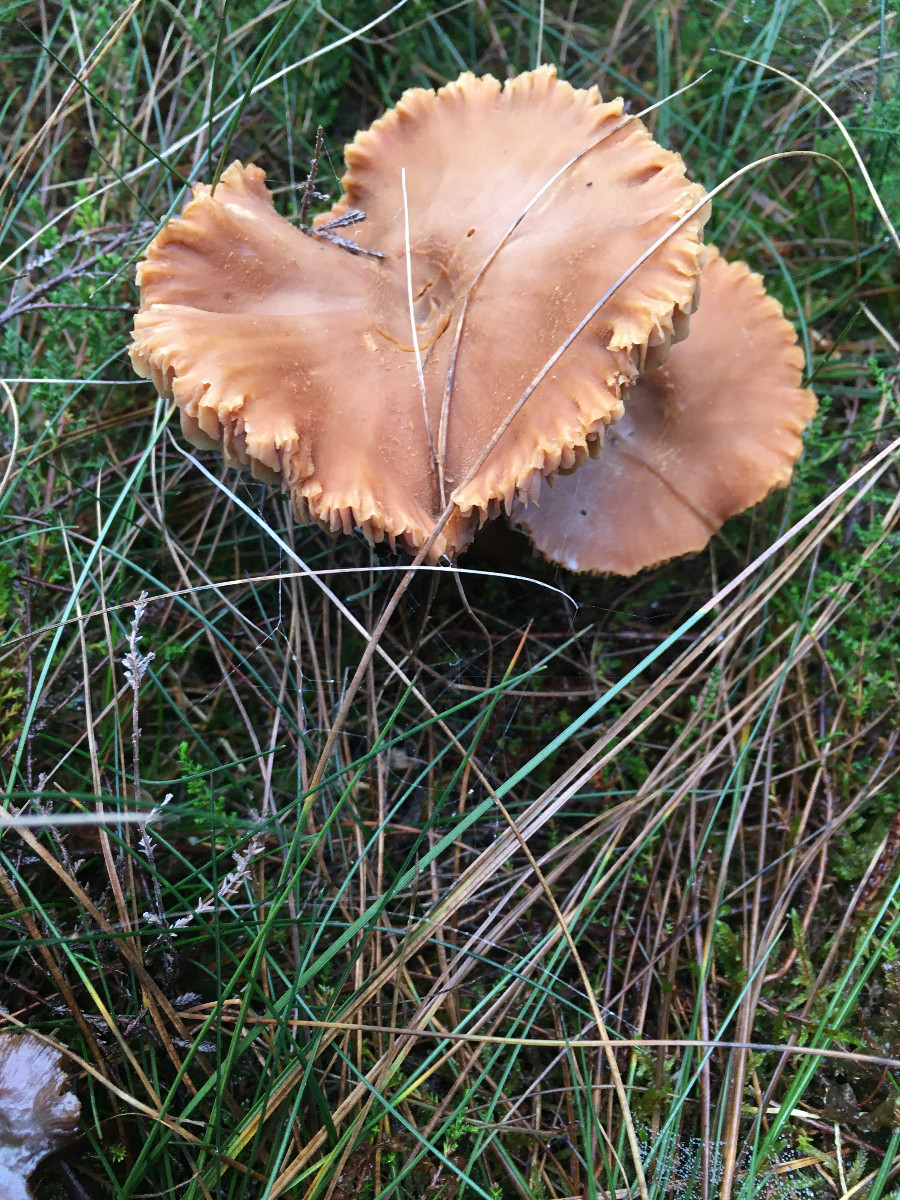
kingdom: Fungi
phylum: Basidiomycota
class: Agaricomycetes
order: Agaricales
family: Hydnangiaceae
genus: Laccaria
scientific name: Laccaria
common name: ametysthat
